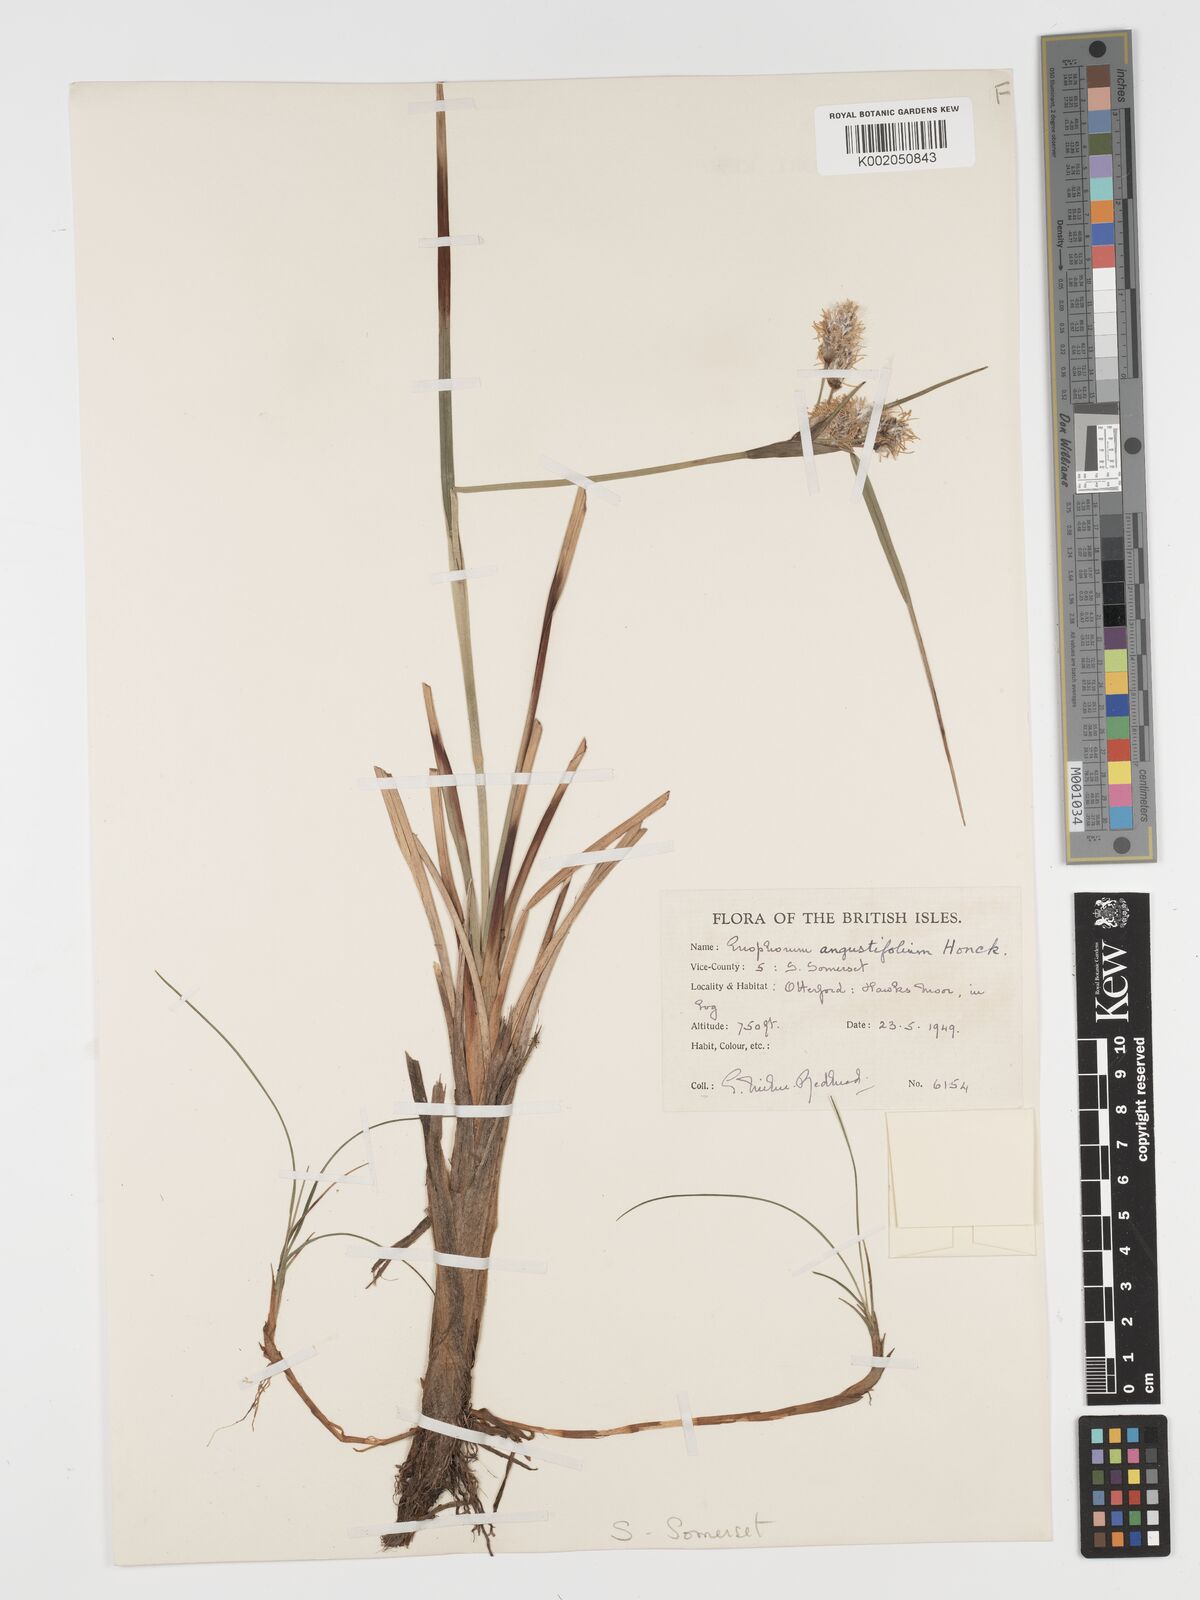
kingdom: Plantae
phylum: Tracheophyta
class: Liliopsida
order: Poales
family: Cyperaceae
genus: Eriophorum
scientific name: Eriophorum angustifolium
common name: Common cottongrass
